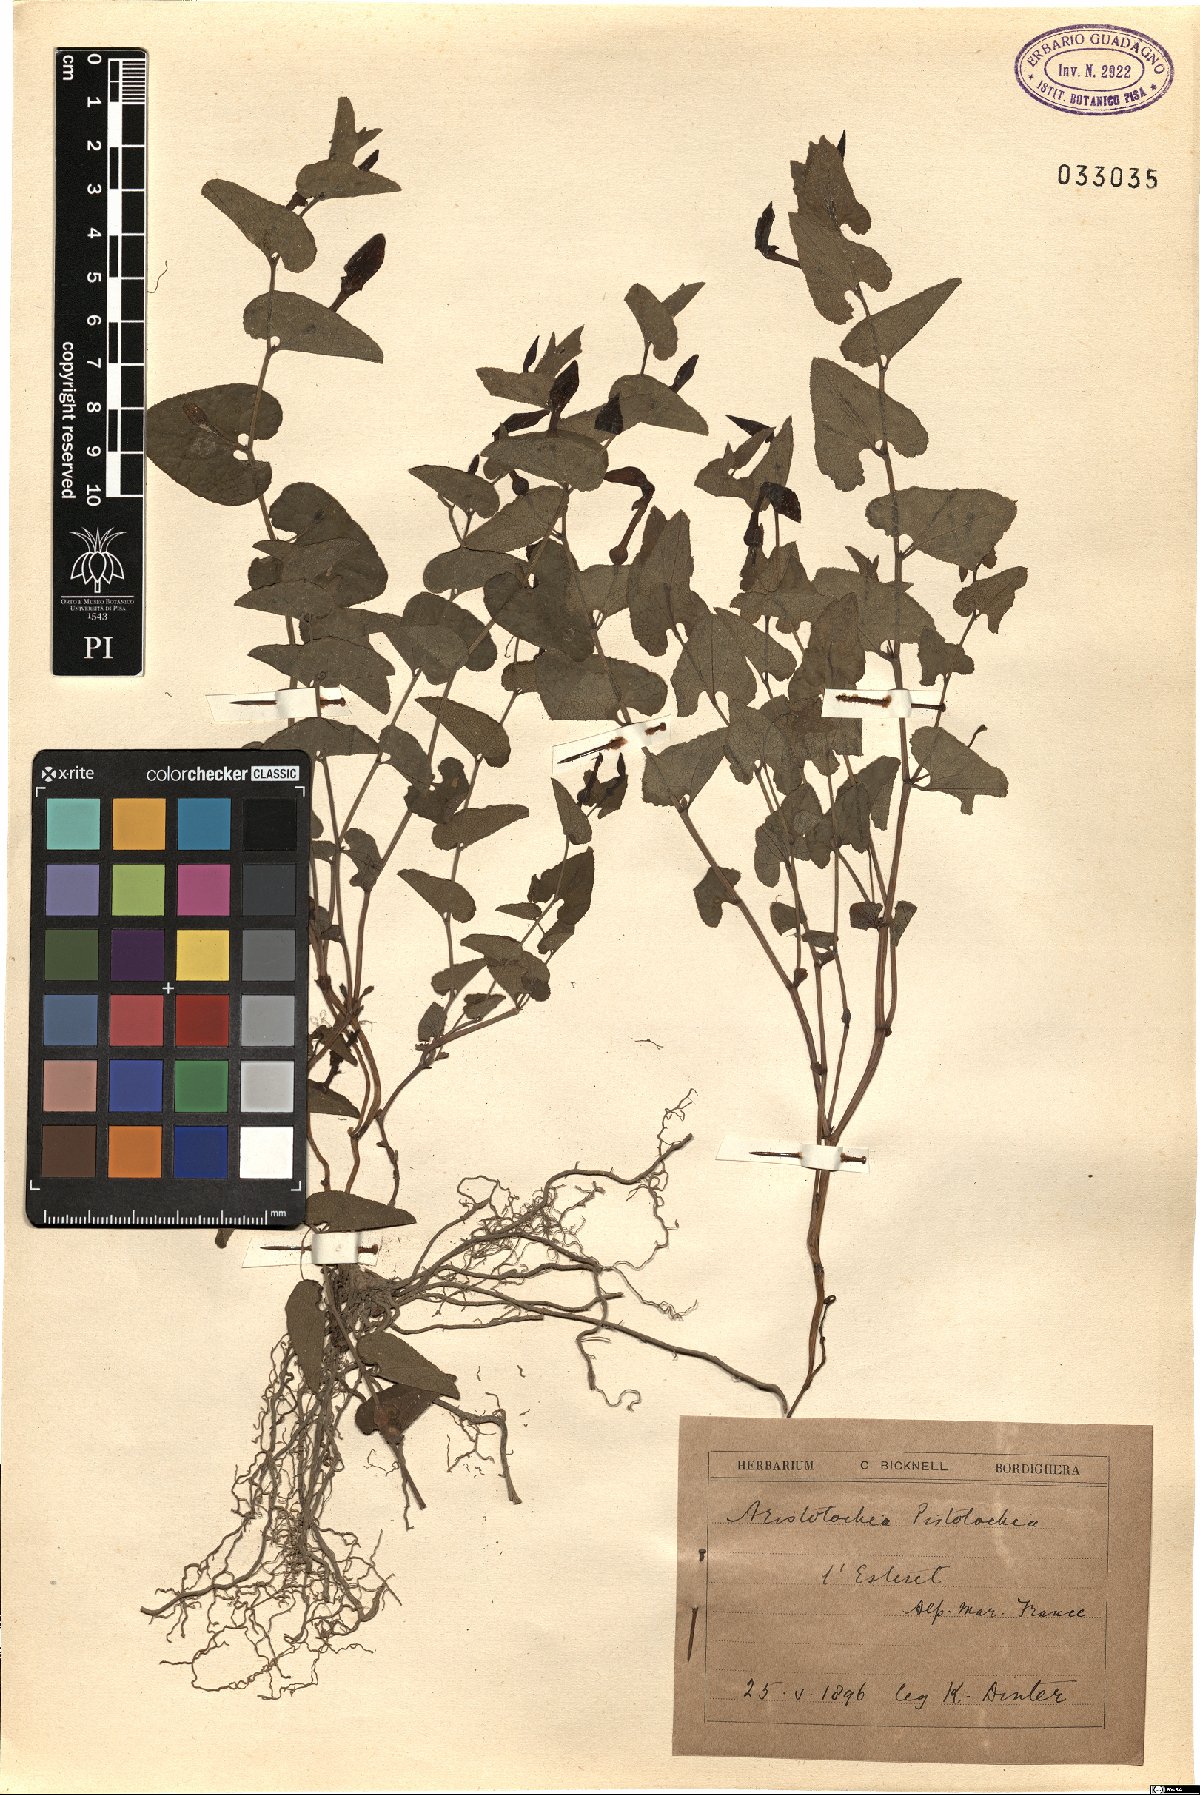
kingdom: Plantae
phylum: Tracheophyta
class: Magnoliopsida
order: Piperales
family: Aristolochiaceae
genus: Aristolochia
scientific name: Aristolochia pistolochia
